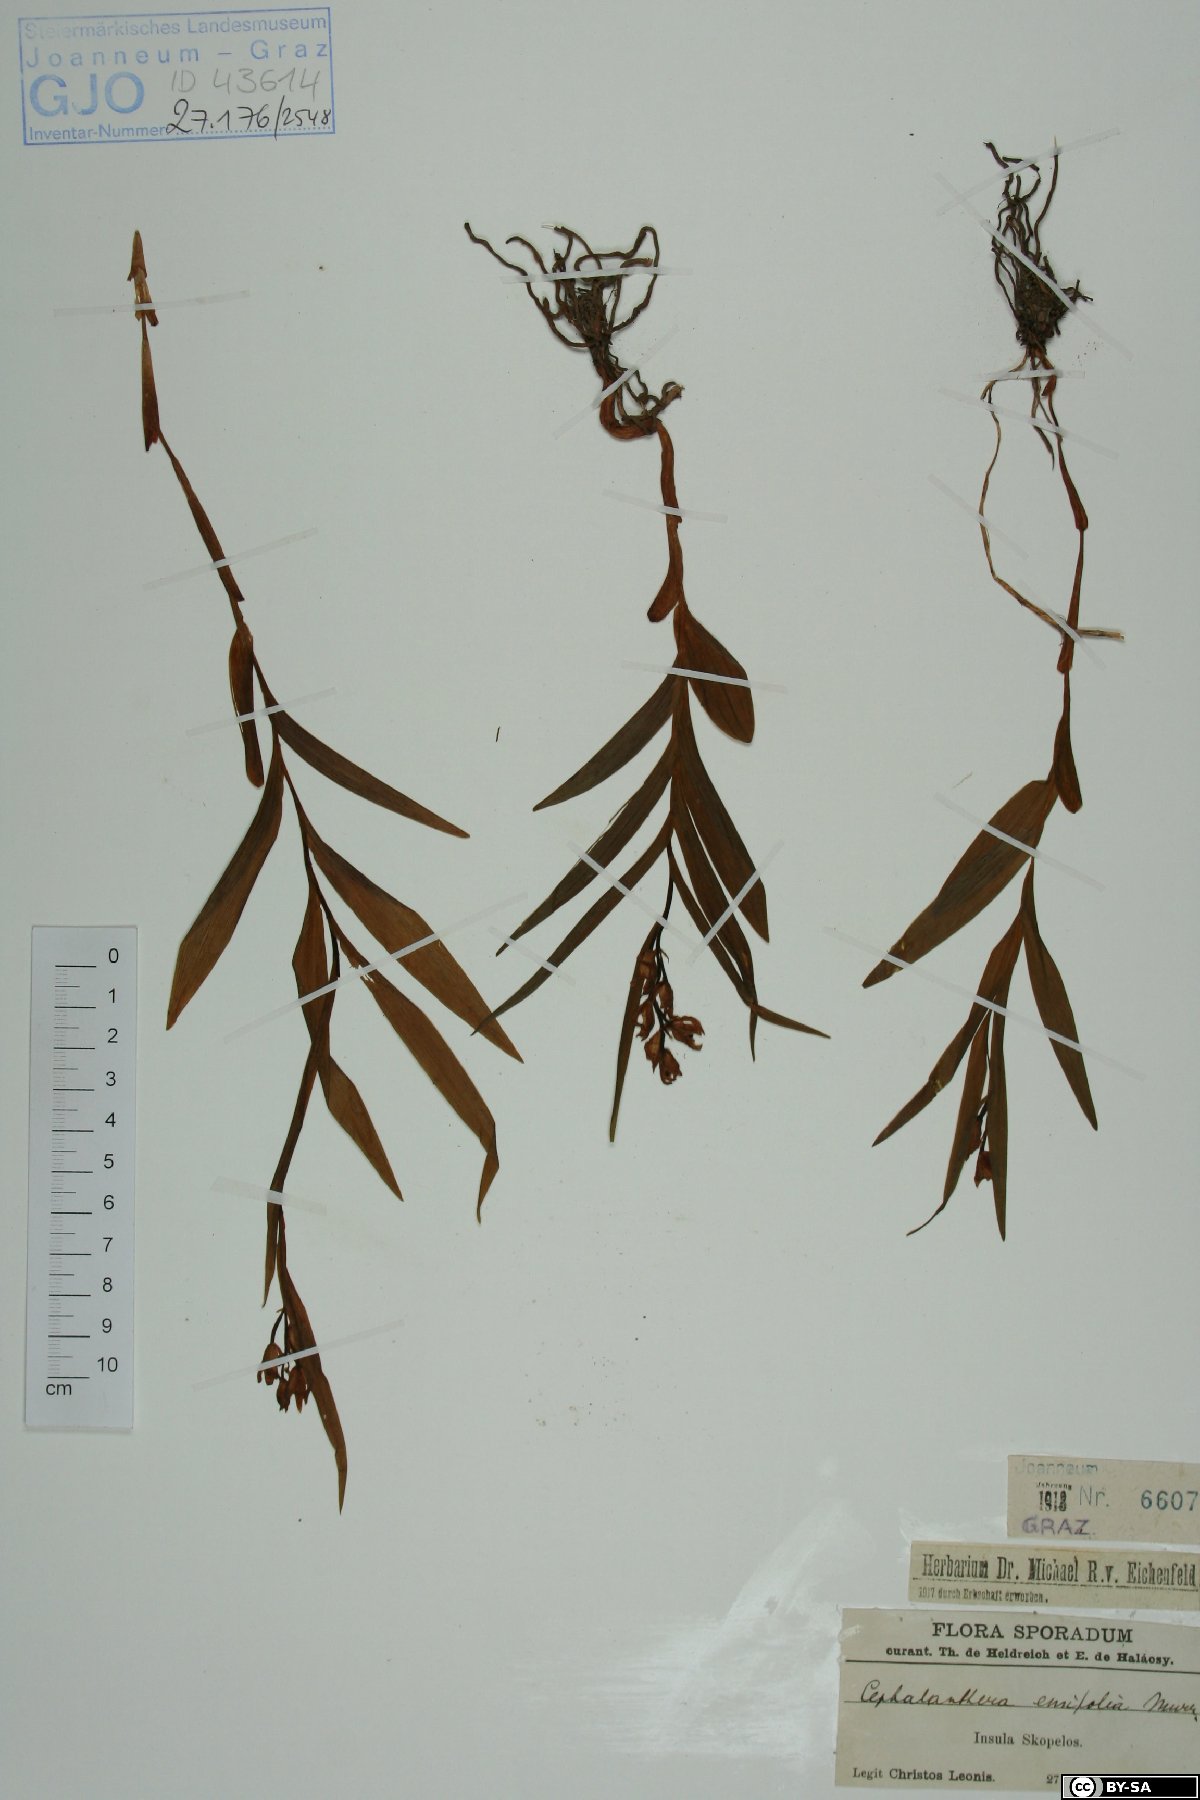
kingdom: Plantae
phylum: Tracheophyta
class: Liliopsida
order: Asparagales
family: Orchidaceae
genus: Cephalanthera
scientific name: Cephalanthera longifolia
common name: Narrow-leaved helleborine
